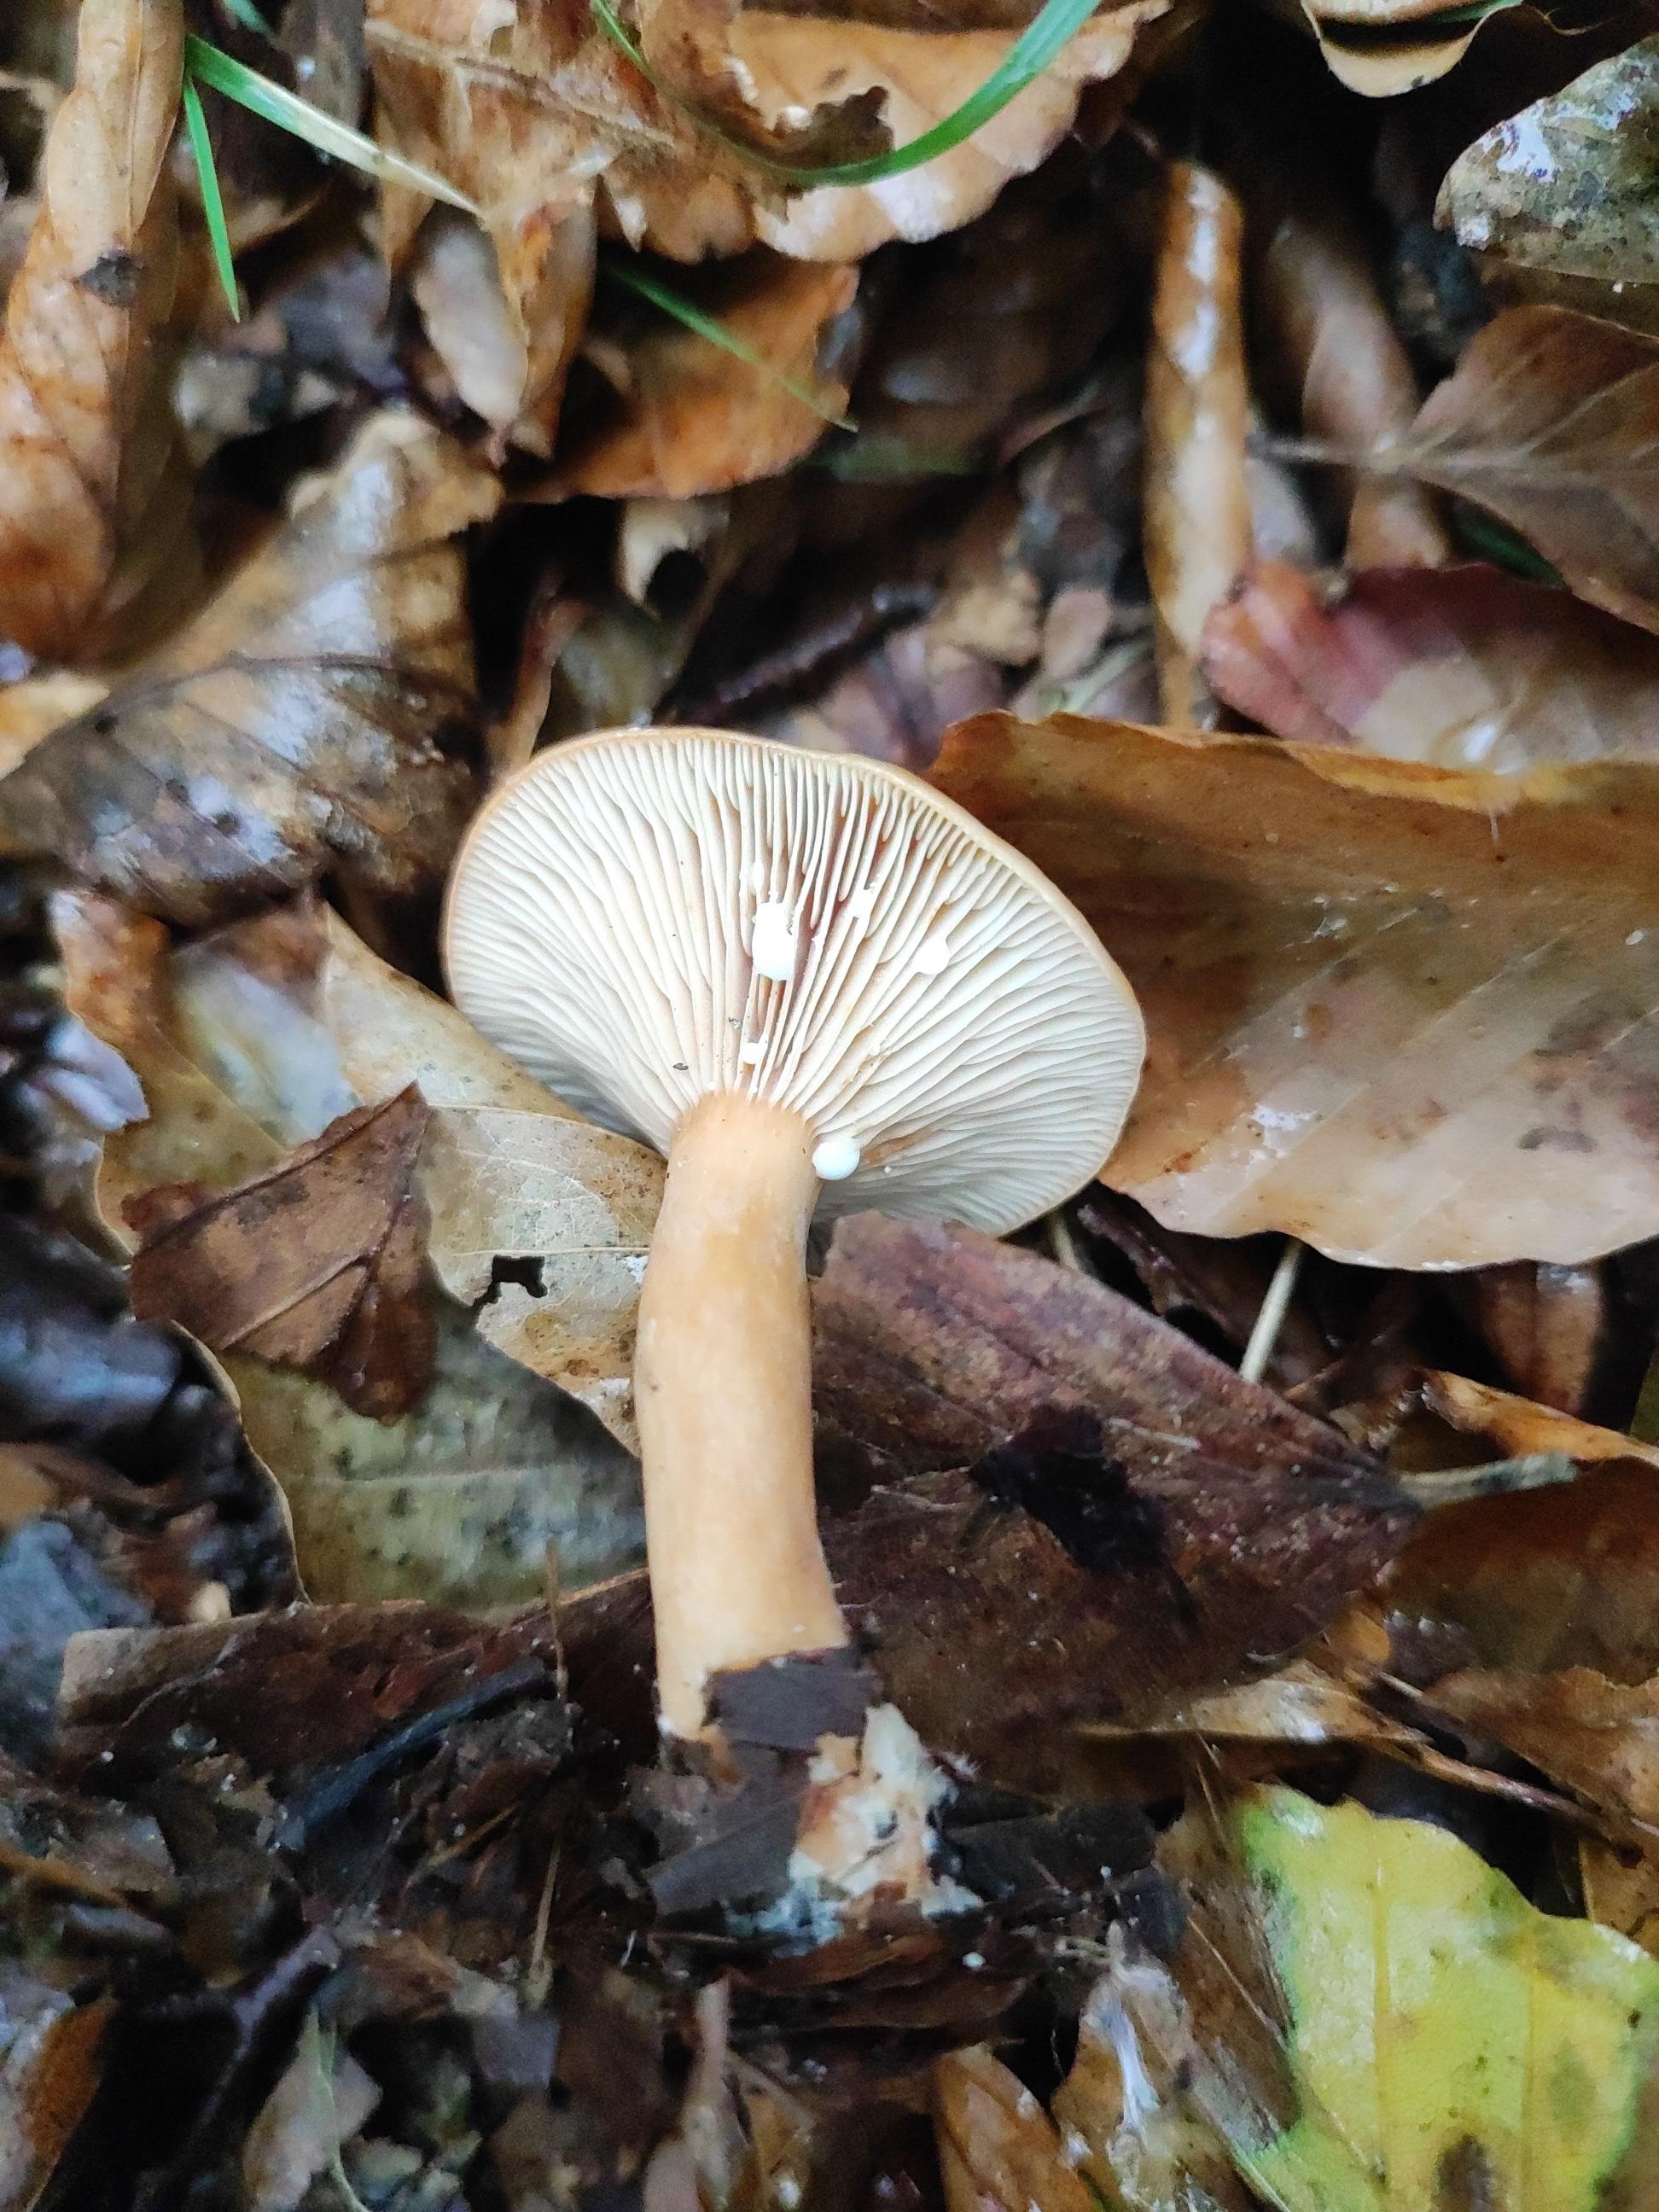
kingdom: Fungi
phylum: Basidiomycota
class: Agaricomycetes
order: Russulales
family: Russulaceae
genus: Lactarius
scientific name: Lactarius subdulcis
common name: sødlig mælkehat
